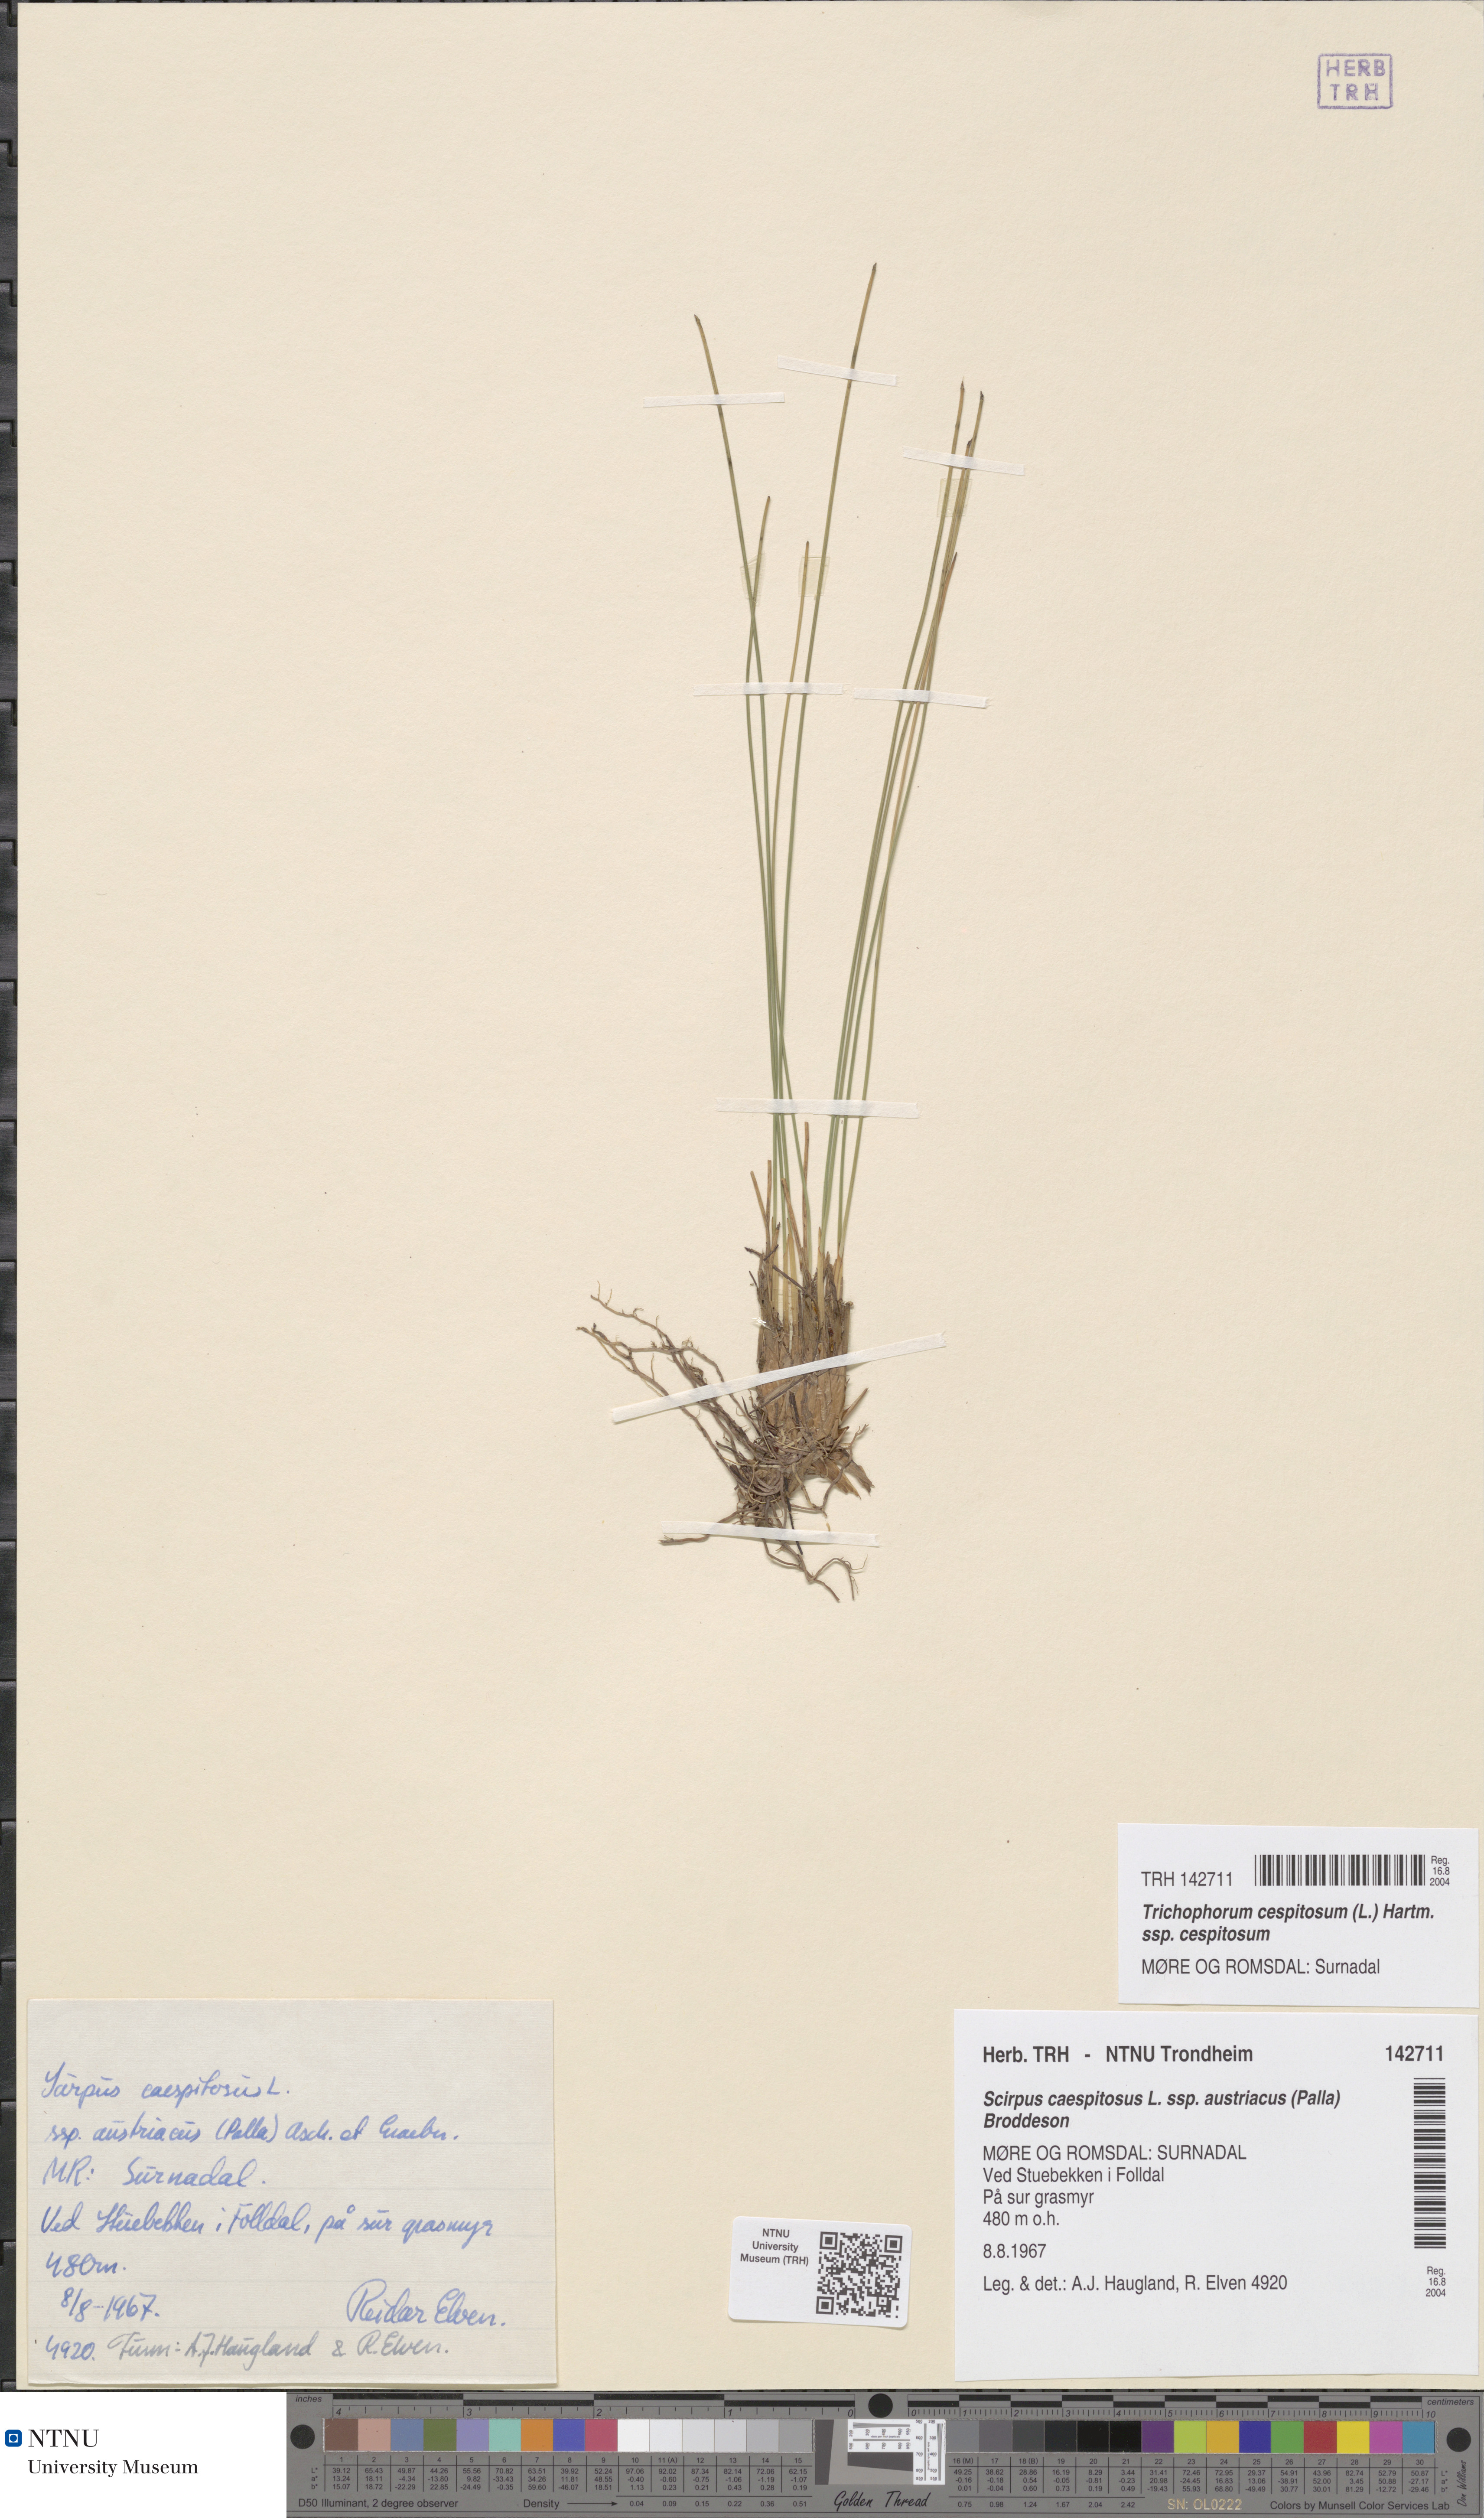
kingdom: Plantae
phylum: Tracheophyta
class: Liliopsida
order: Poales
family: Cyperaceae
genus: Trichophorum
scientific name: Trichophorum cespitosum
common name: Cespitose bulrush
